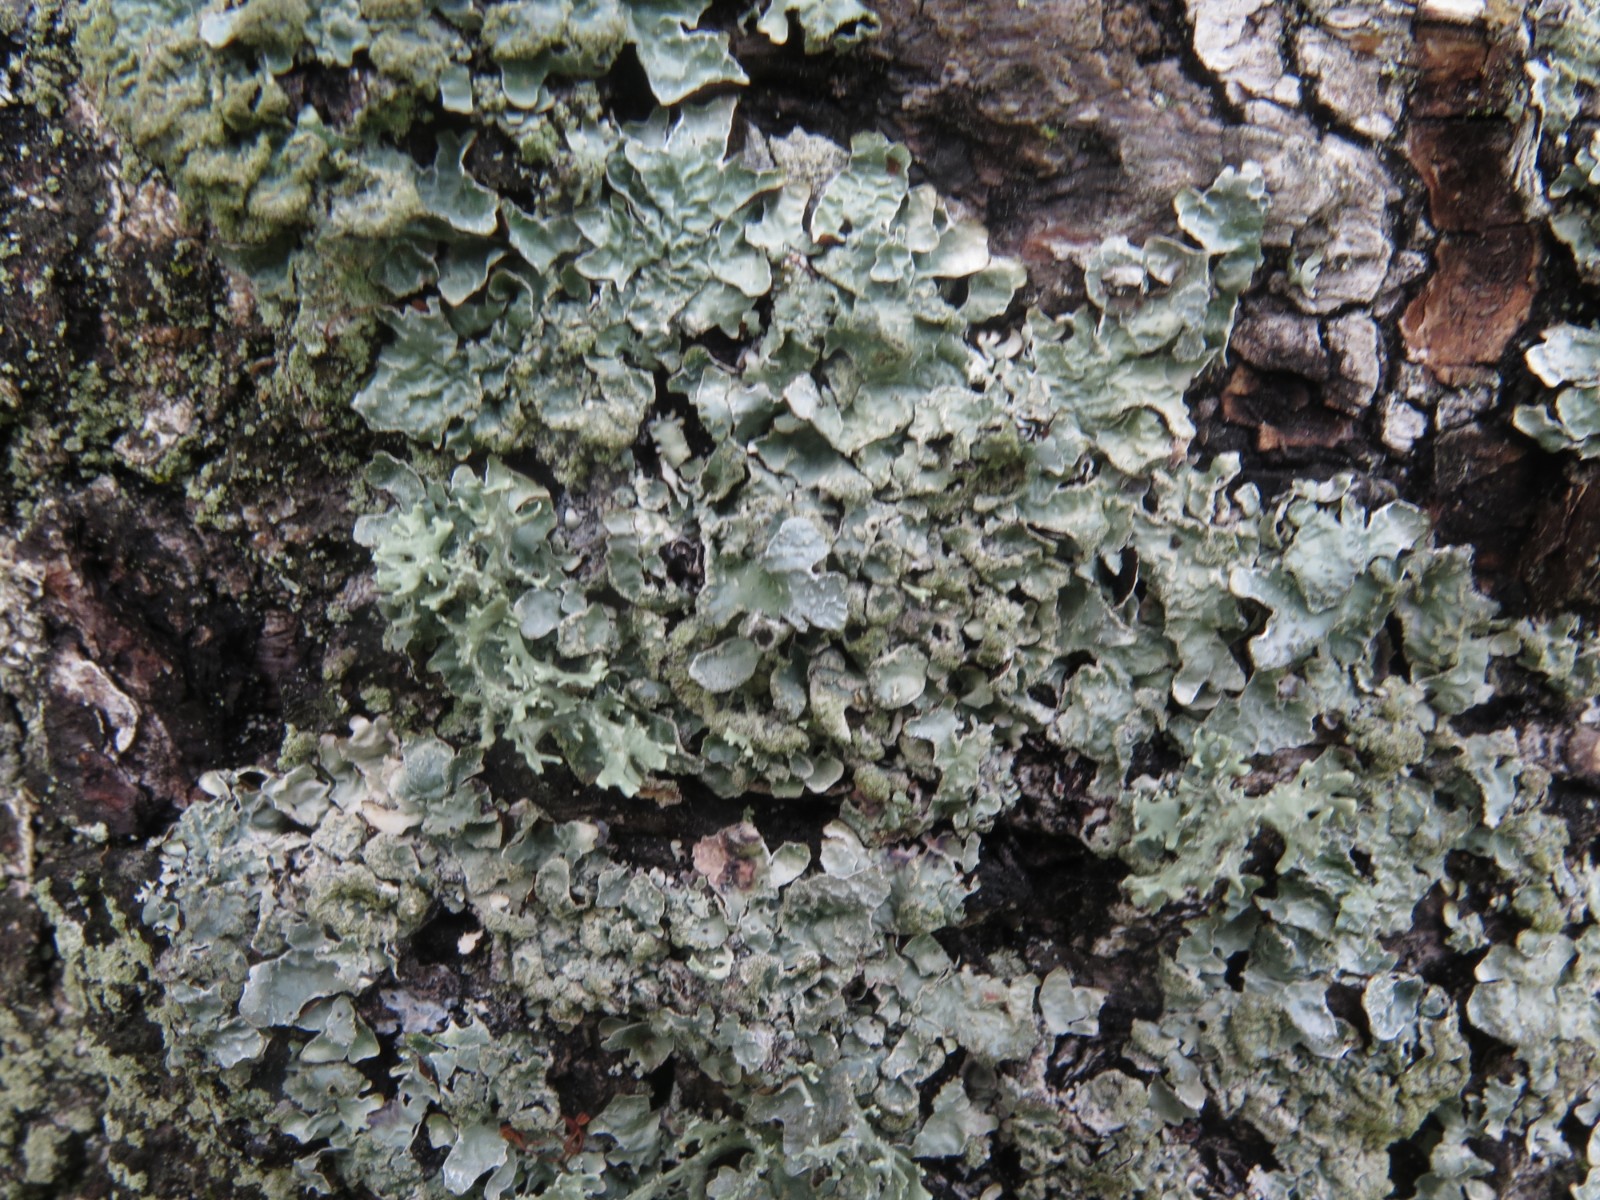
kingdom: Fungi
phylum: Ascomycota
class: Lecanoromycetes
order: Lecanorales
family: Parmeliaceae
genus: Parmelia
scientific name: Parmelia sulcata
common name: rynket skållav
